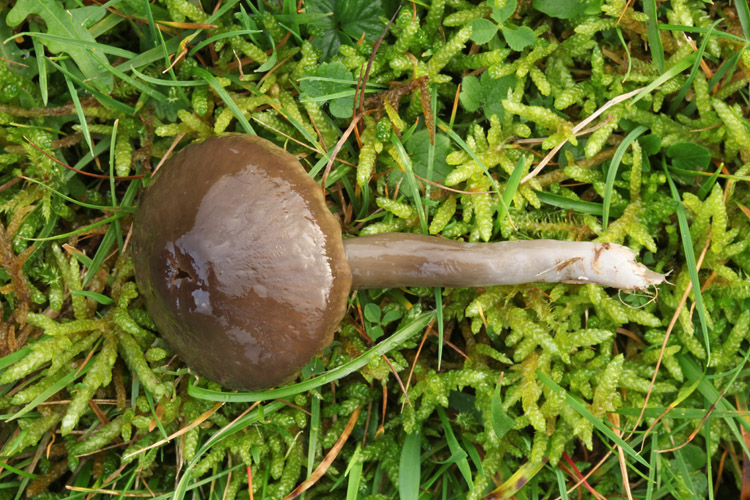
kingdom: Fungi
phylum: Basidiomycota
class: Agaricomycetes
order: Agaricales
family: Hygrophoraceae
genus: Gliophorus
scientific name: Gliophorus irrigatus
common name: slimet vokshat
